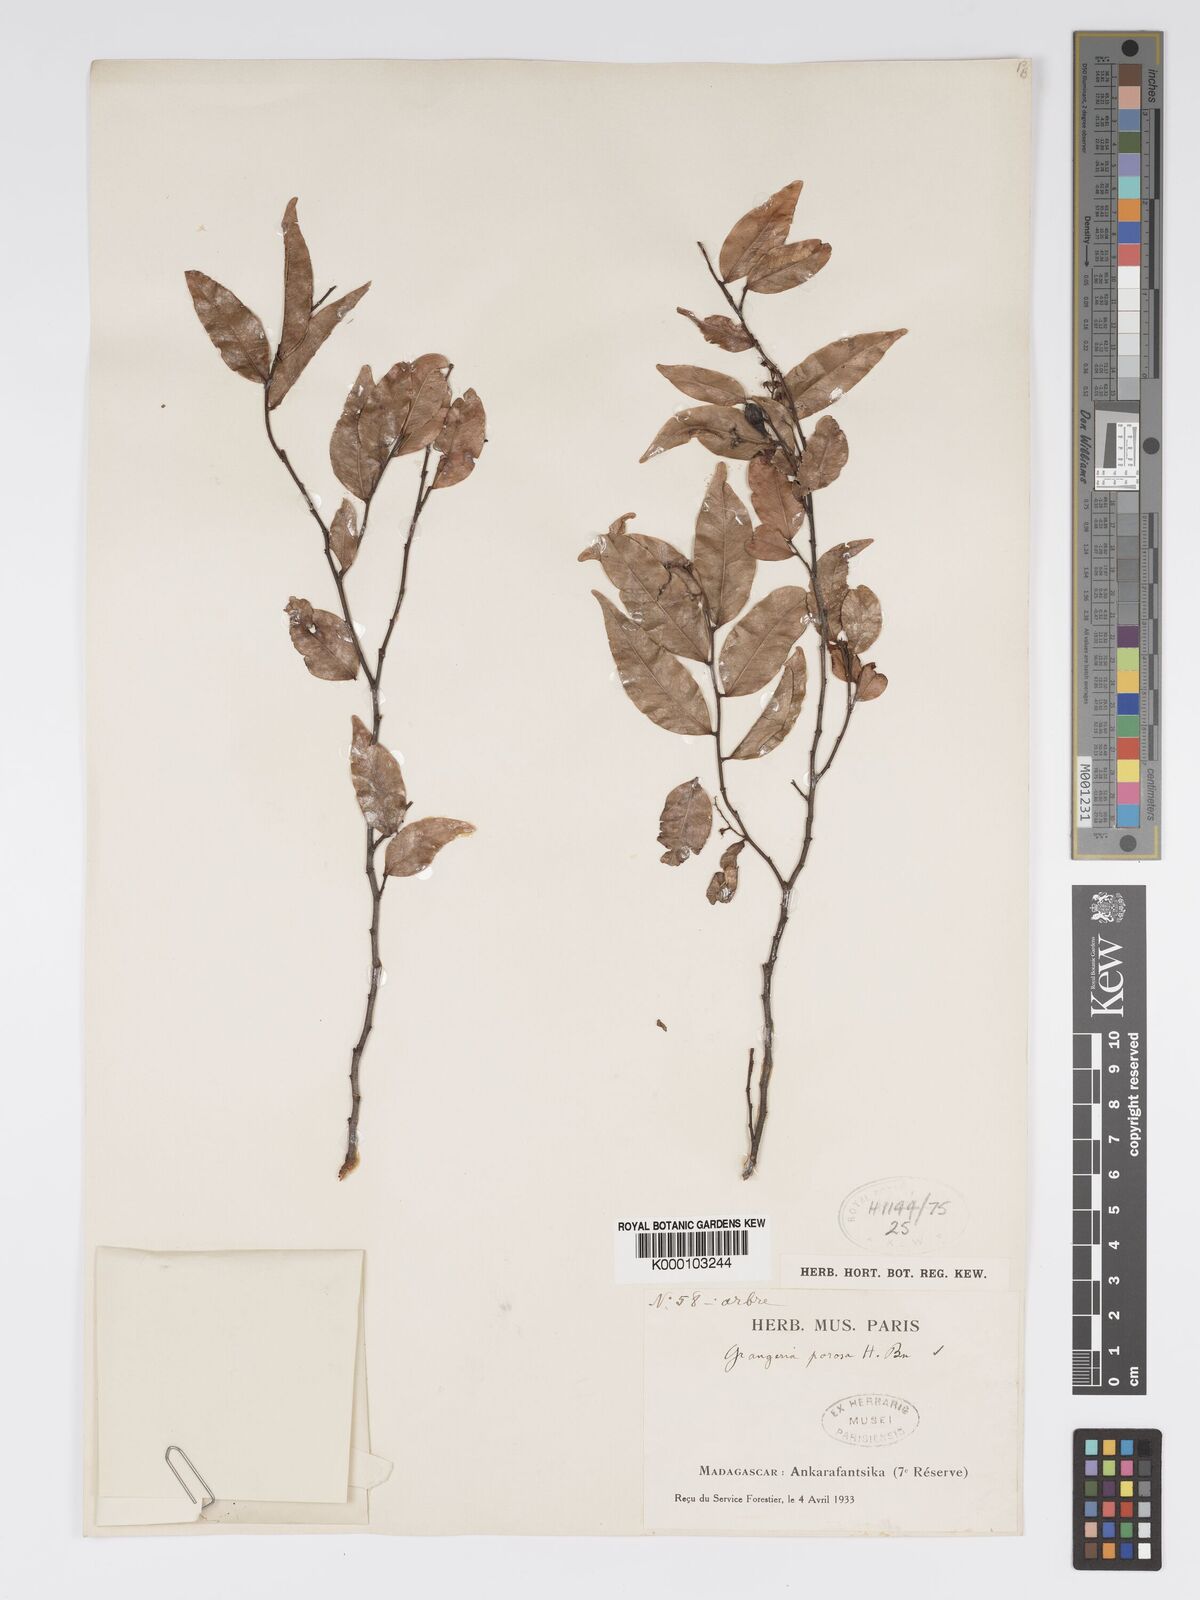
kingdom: Plantae
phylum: Tracheophyta
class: Magnoliopsida
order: Malpighiales
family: Chrysobalanaceae
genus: Grangeria
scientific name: Grangeria porosa
